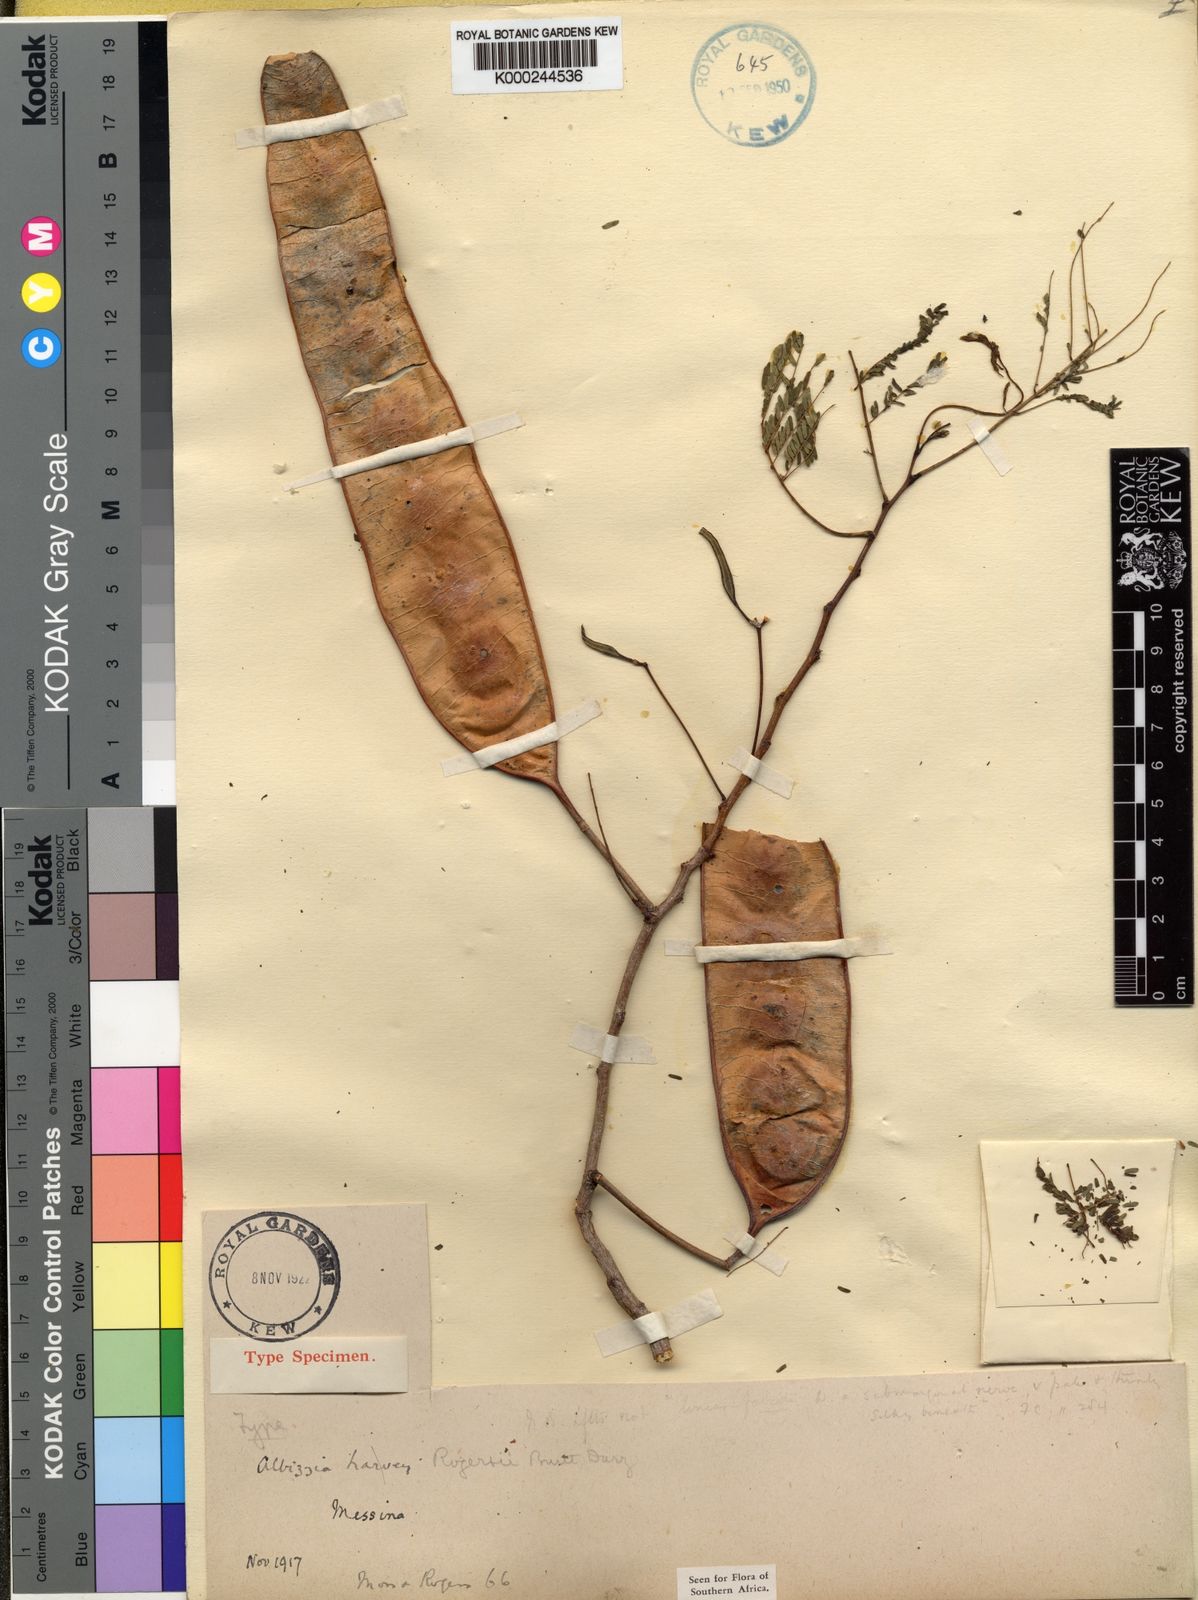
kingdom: Plantae
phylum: Tracheophyta
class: Magnoliopsida
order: Fabales
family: Fabaceae
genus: Albizia
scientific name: Albizia brevifolia
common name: Rock false-thorn
